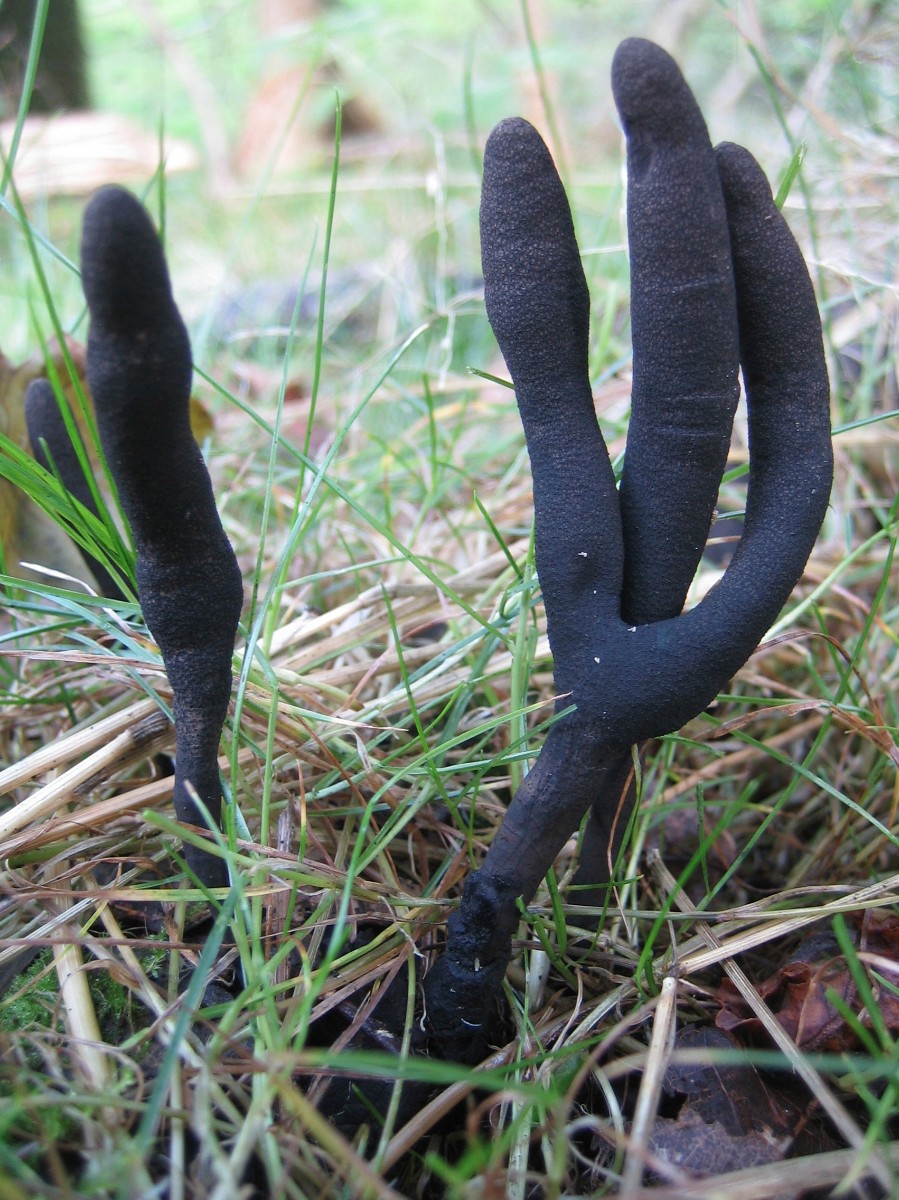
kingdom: Fungi
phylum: Ascomycota
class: Sordariomycetes
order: Xylariales
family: Xylariaceae
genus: Xylaria
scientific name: Xylaria longipes
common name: slank stødsvamp
